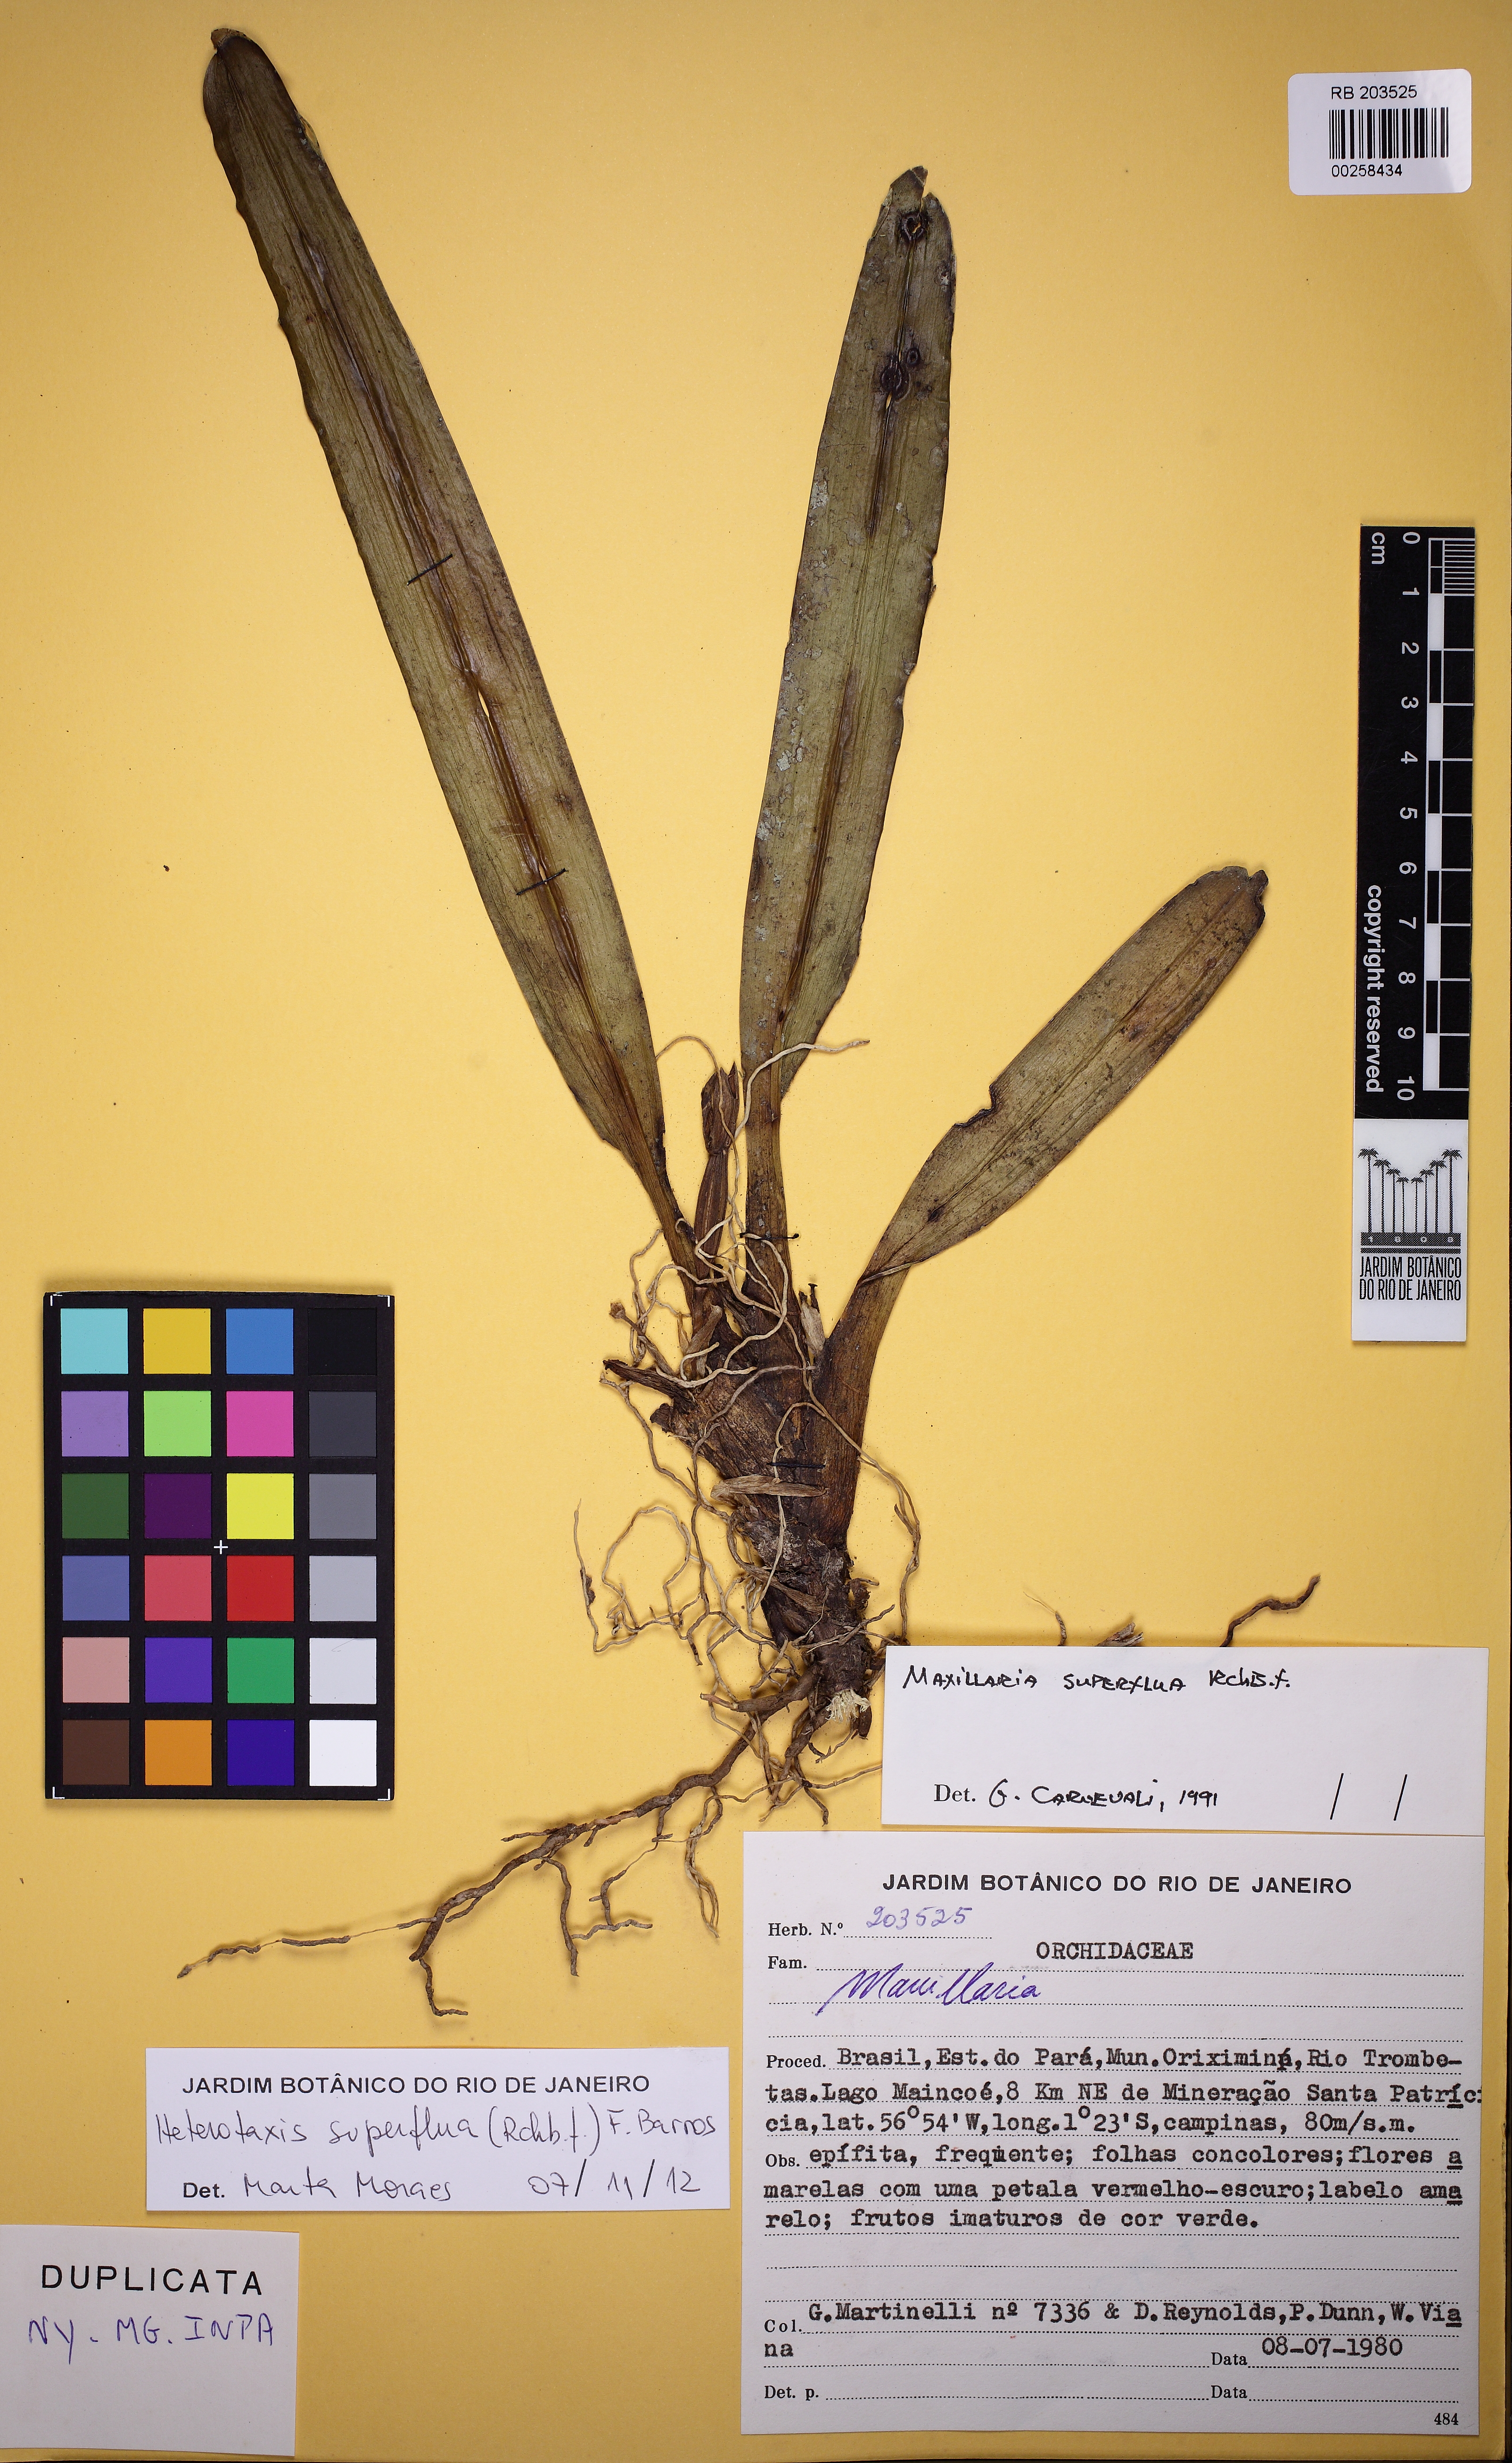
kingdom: Plantae
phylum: Tracheophyta
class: Liliopsida
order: Asparagales
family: Orchidaceae
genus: Maxillaria
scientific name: Maxillaria superflua
